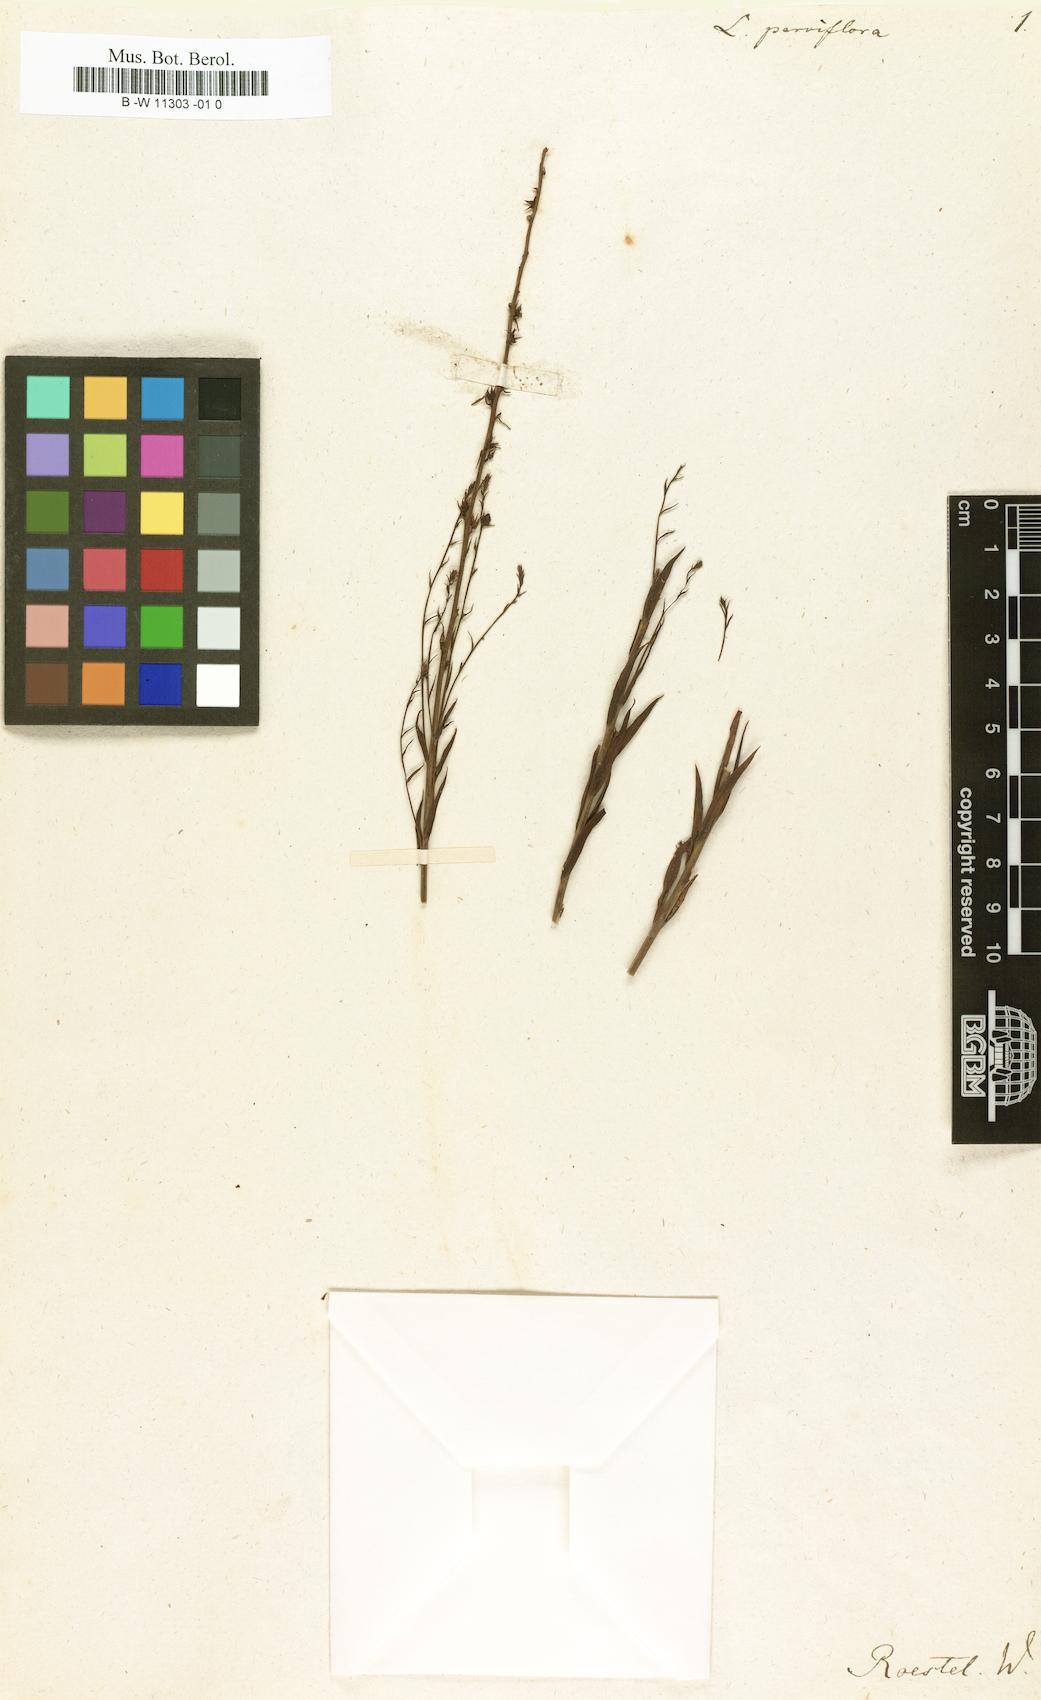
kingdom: Plantae
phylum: Tracheophyta
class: Magnoliopsida
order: Lamiales
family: Plantaginaceae
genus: Linaria
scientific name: Linaria
